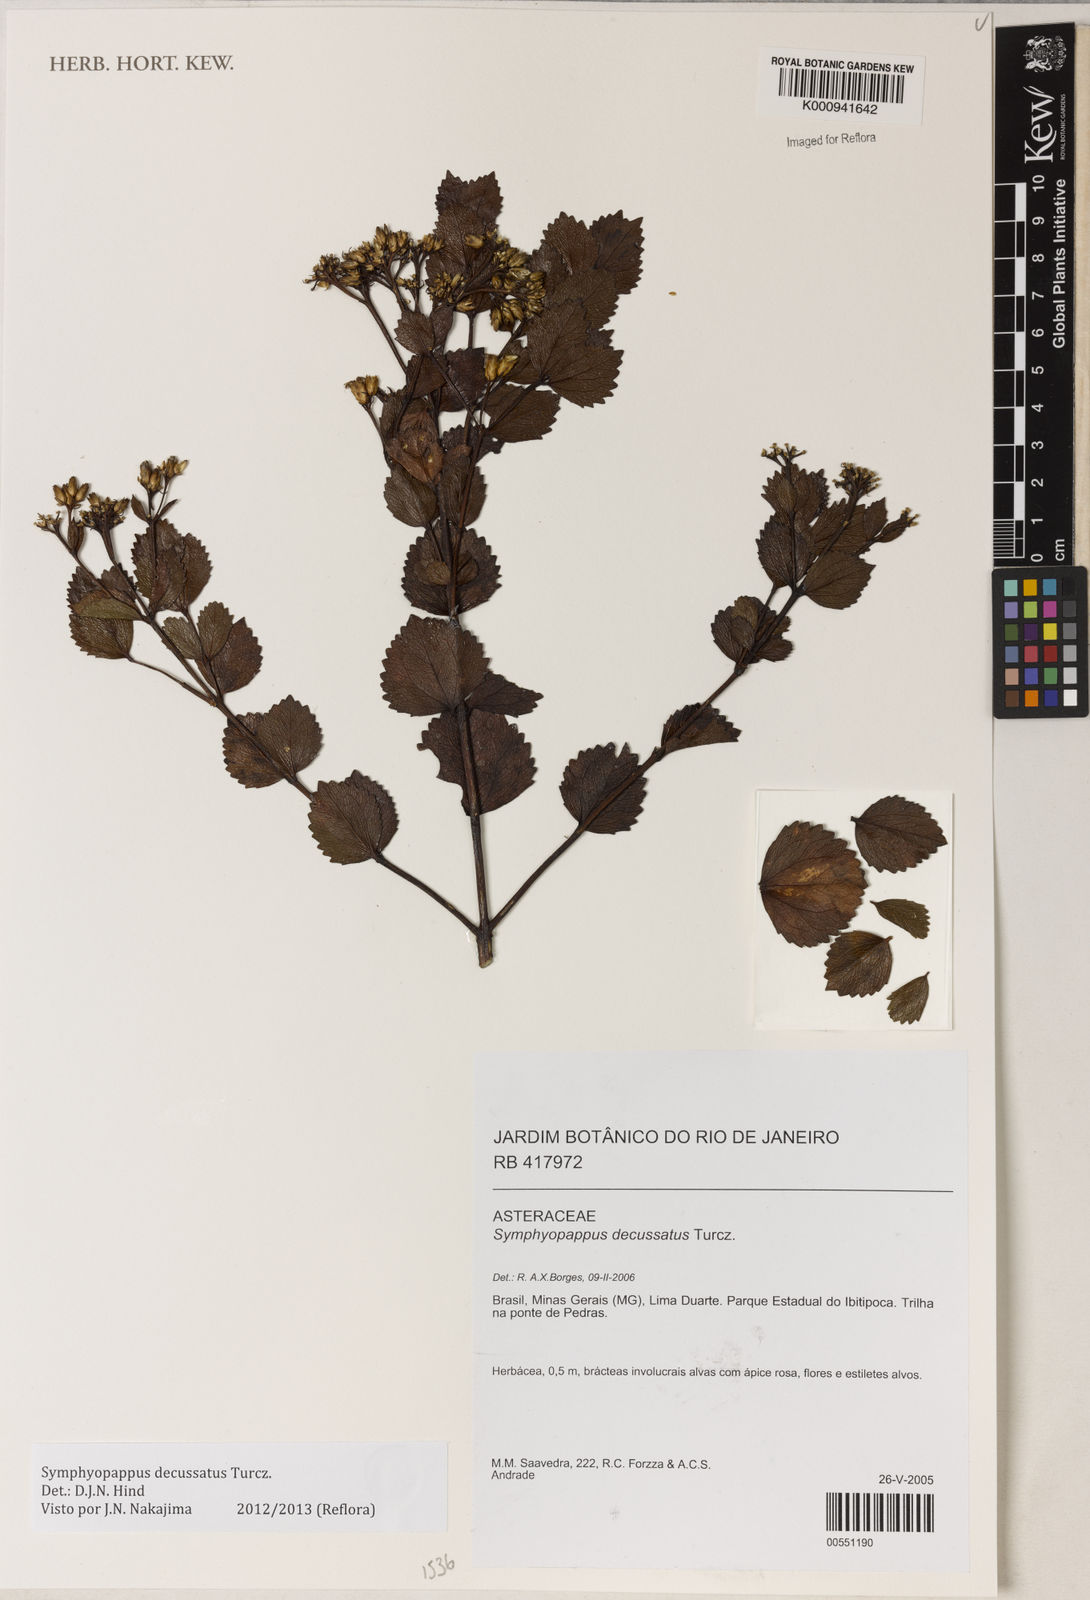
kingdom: Plantae
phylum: Tracheophyta
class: Magnoliopsida
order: Asterales
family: Asteraceae
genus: Symphyopappus
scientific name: Symphyopappus decussatus
